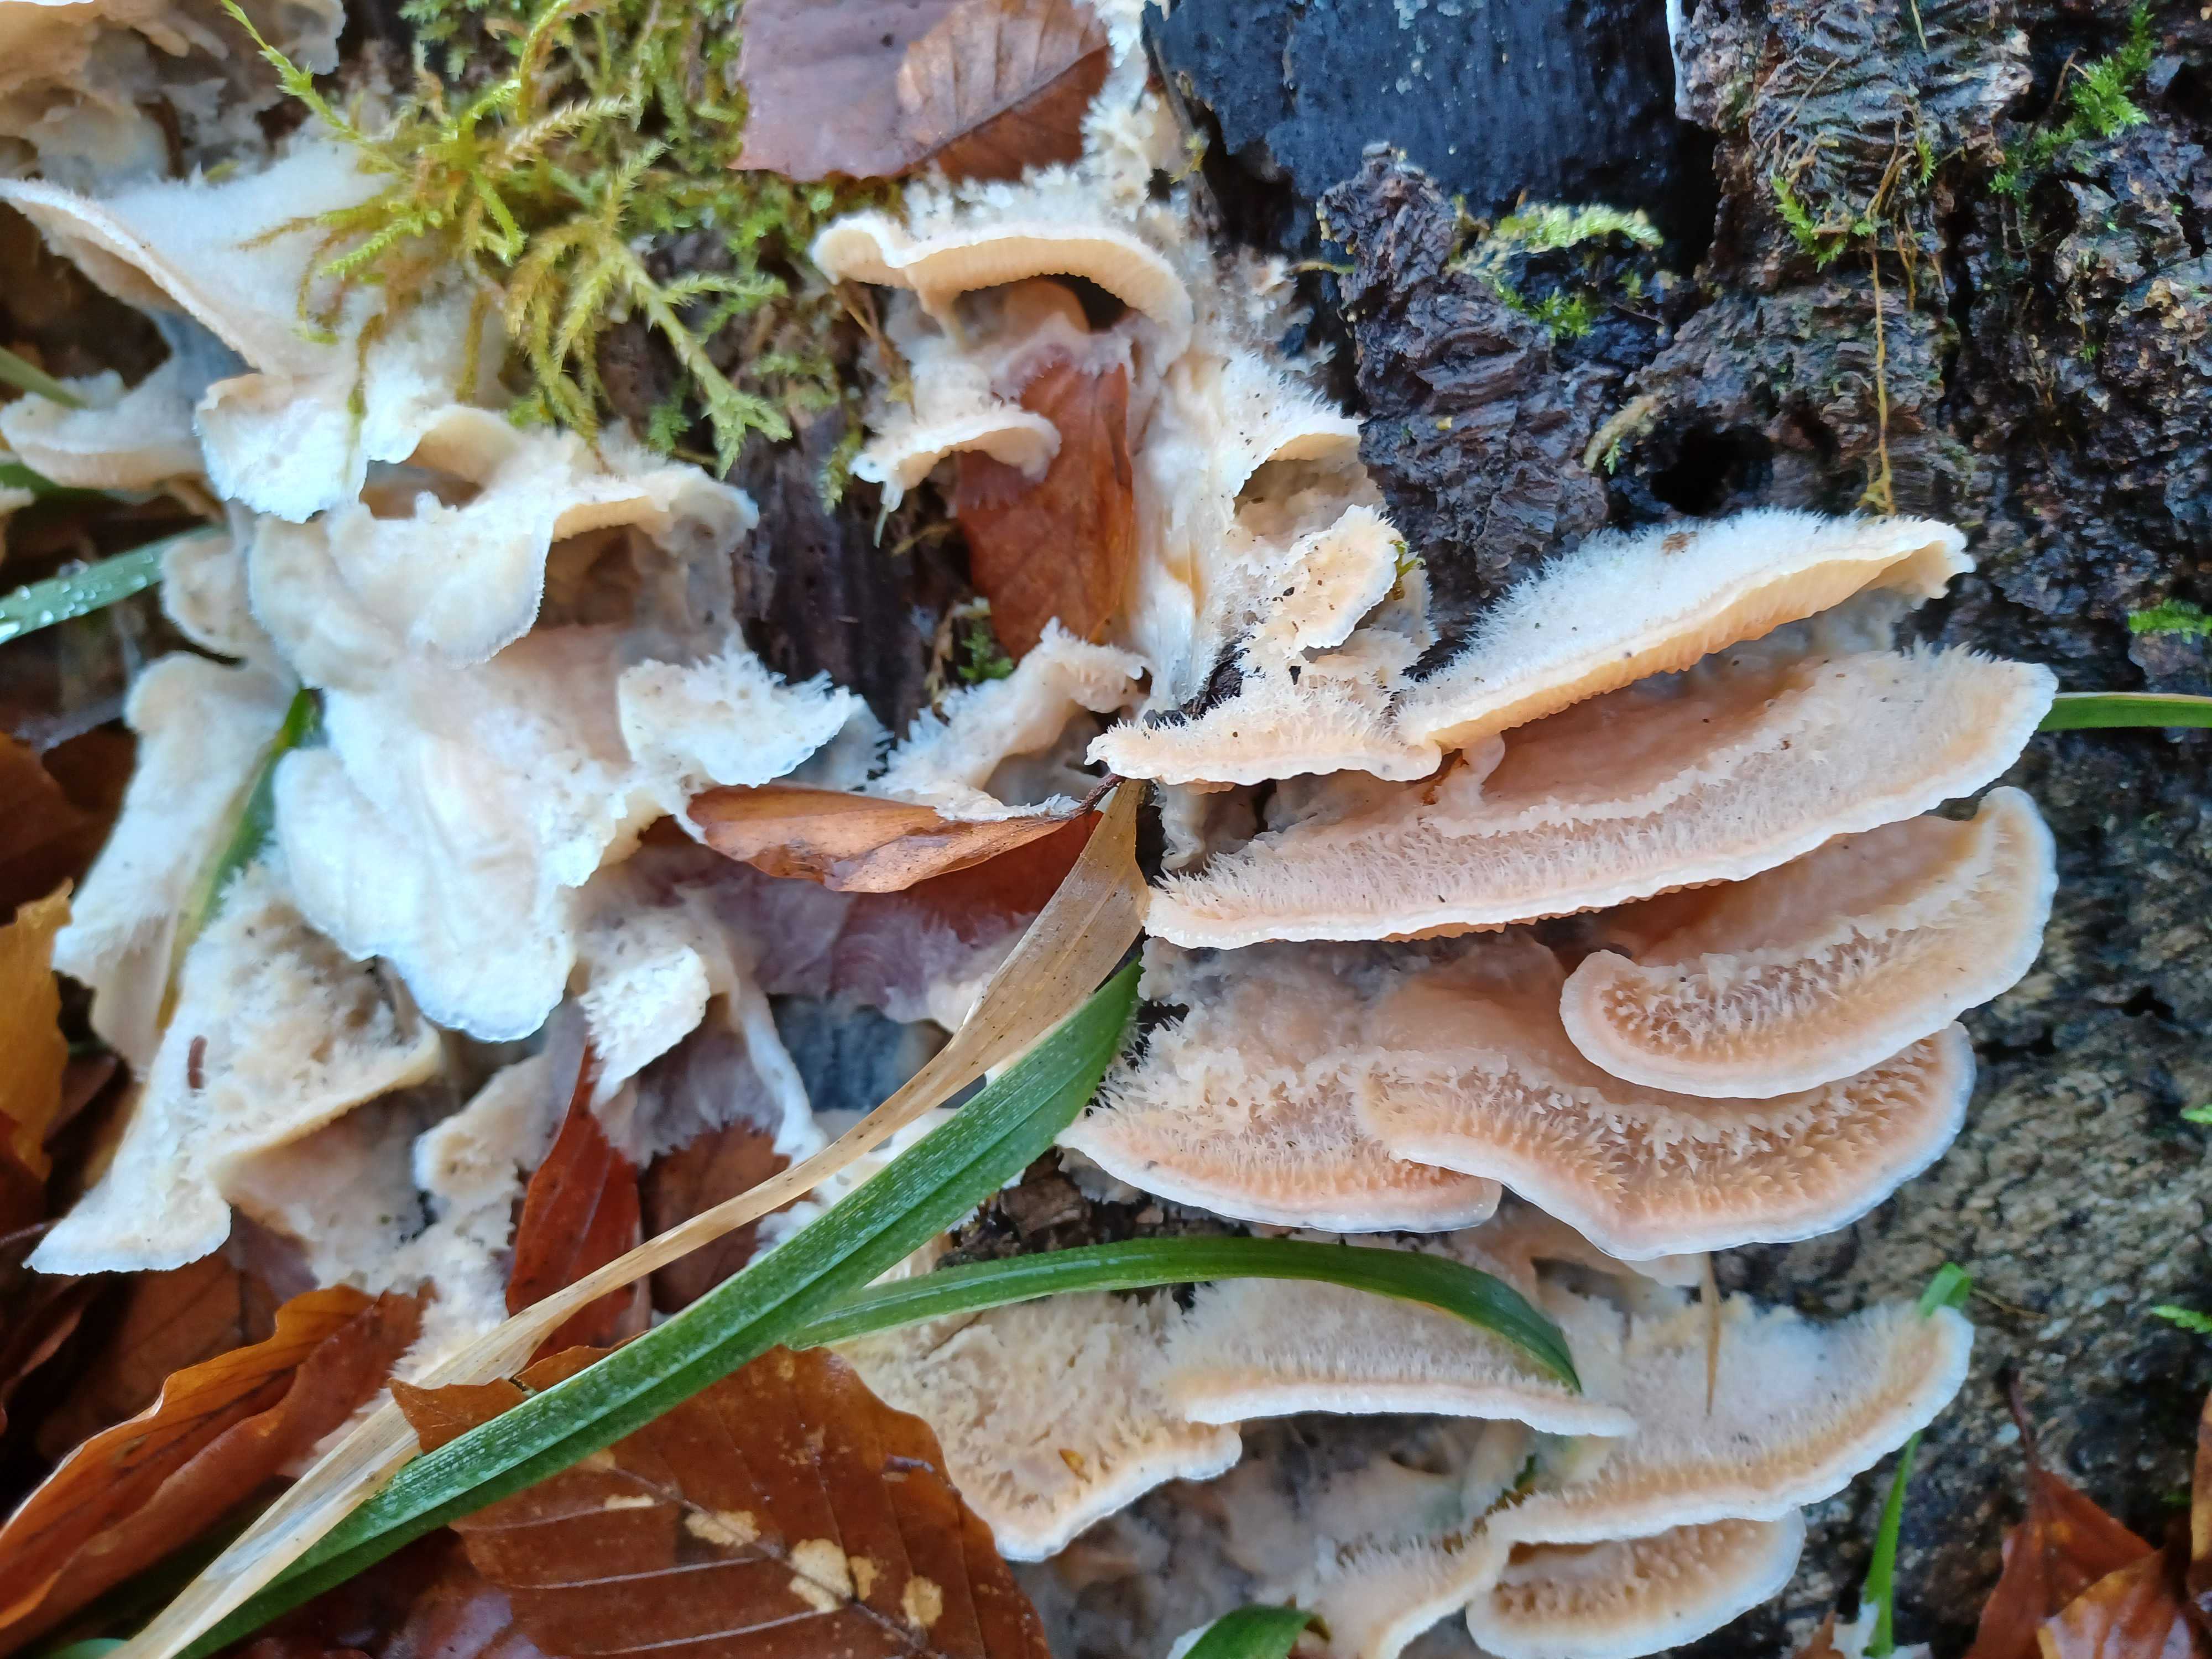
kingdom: Fungi
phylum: Basidiomycota
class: Agaricomycetes
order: Polyporales
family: Meruliaceae
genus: Phlebia
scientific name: Phlebia tremellosa
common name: bævrende åresvamp
